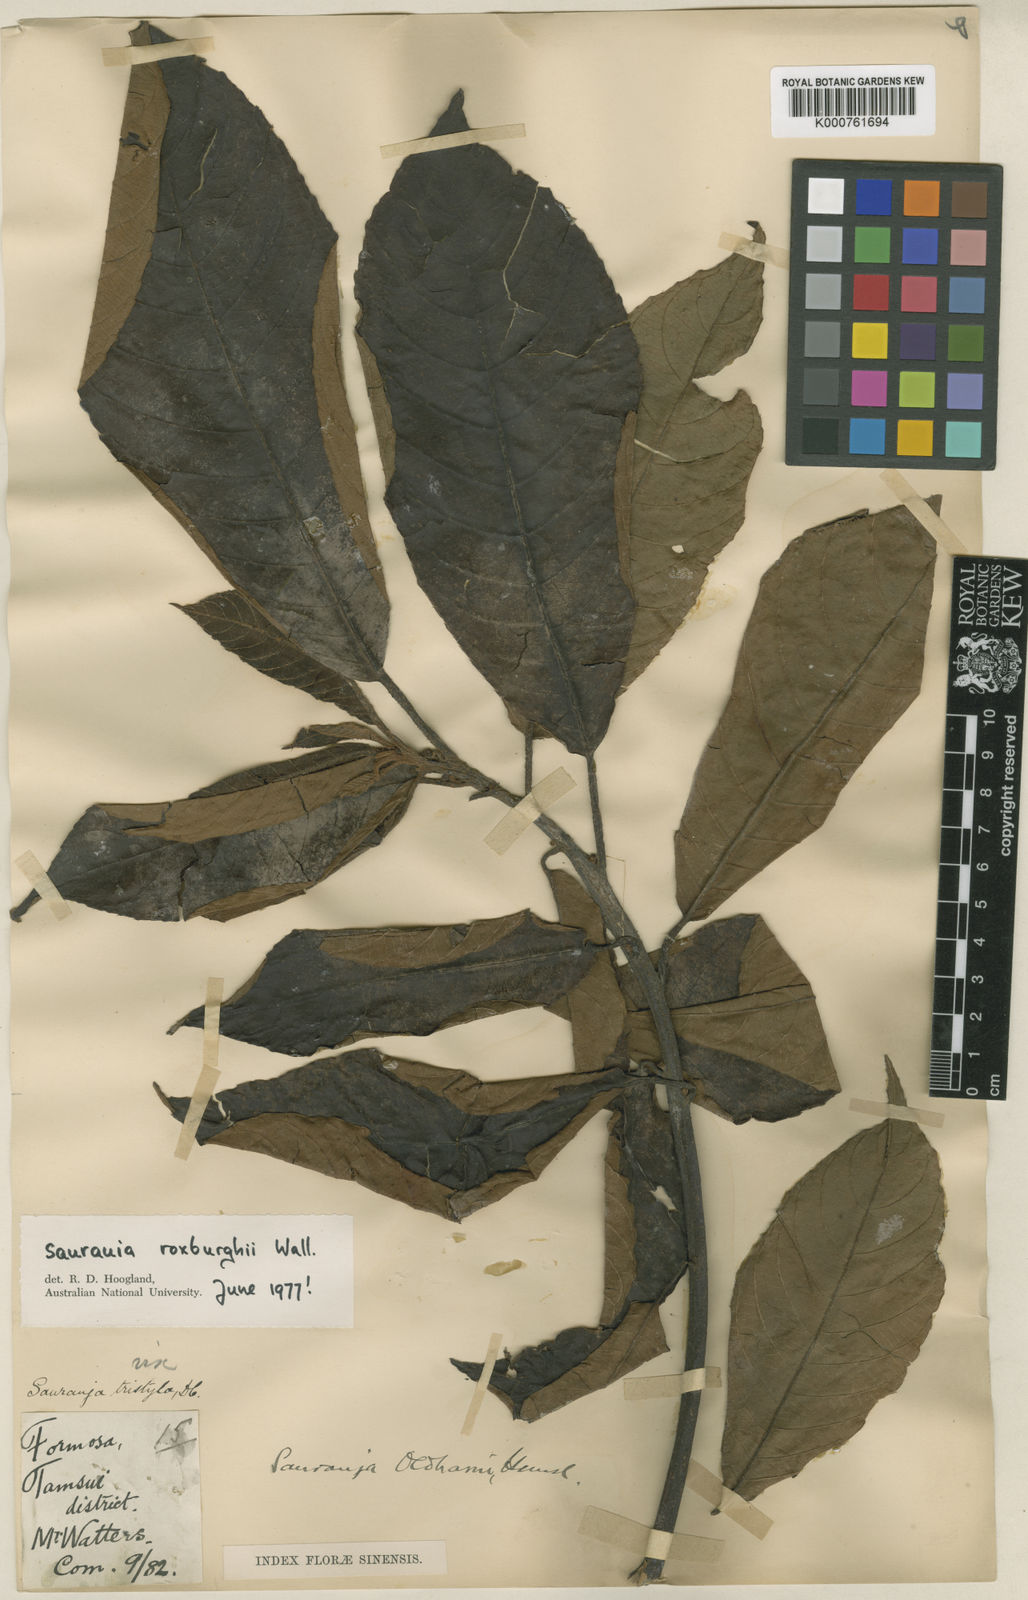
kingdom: Plantae
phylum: Tracheophyta
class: Magnoliopsida
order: Ericales
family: Actinidiaceae
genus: Saurauia
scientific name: Saurauia tristyla
